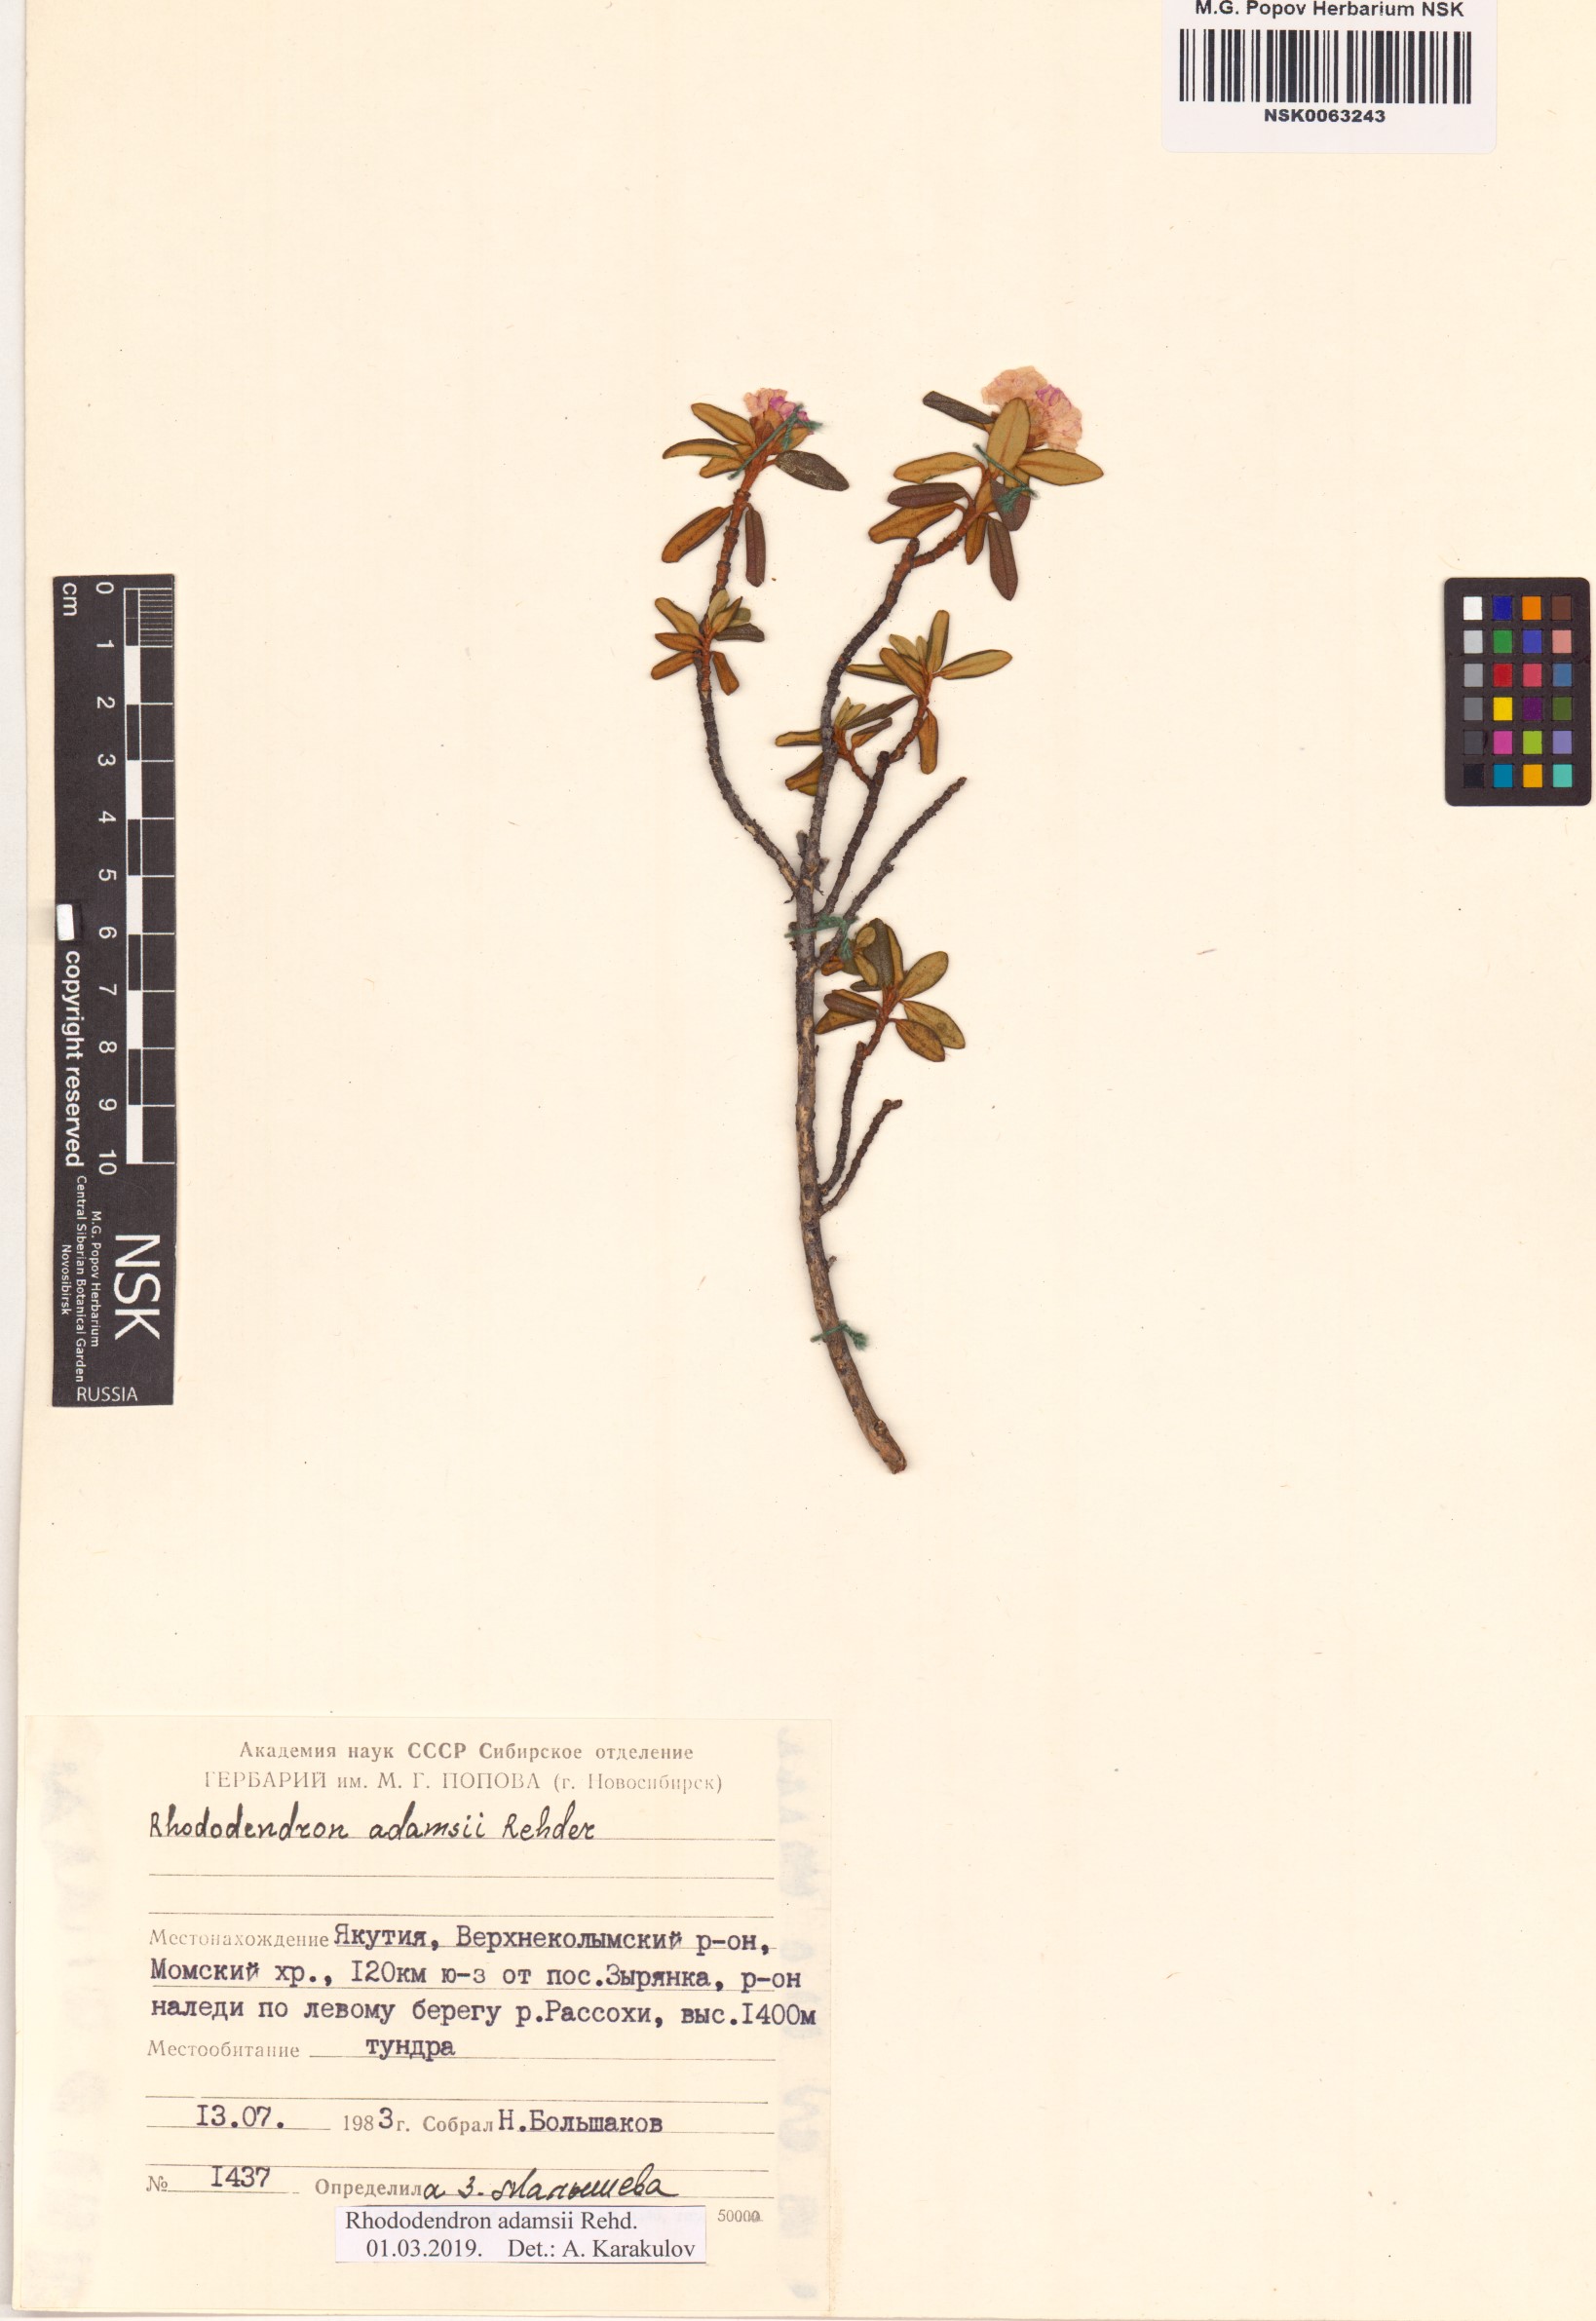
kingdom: Plantae
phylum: Tracheophyta
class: Magnoliopsida
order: Ericales
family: Ericaceae
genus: Rhododendron
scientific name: Rhododendron adamsii
